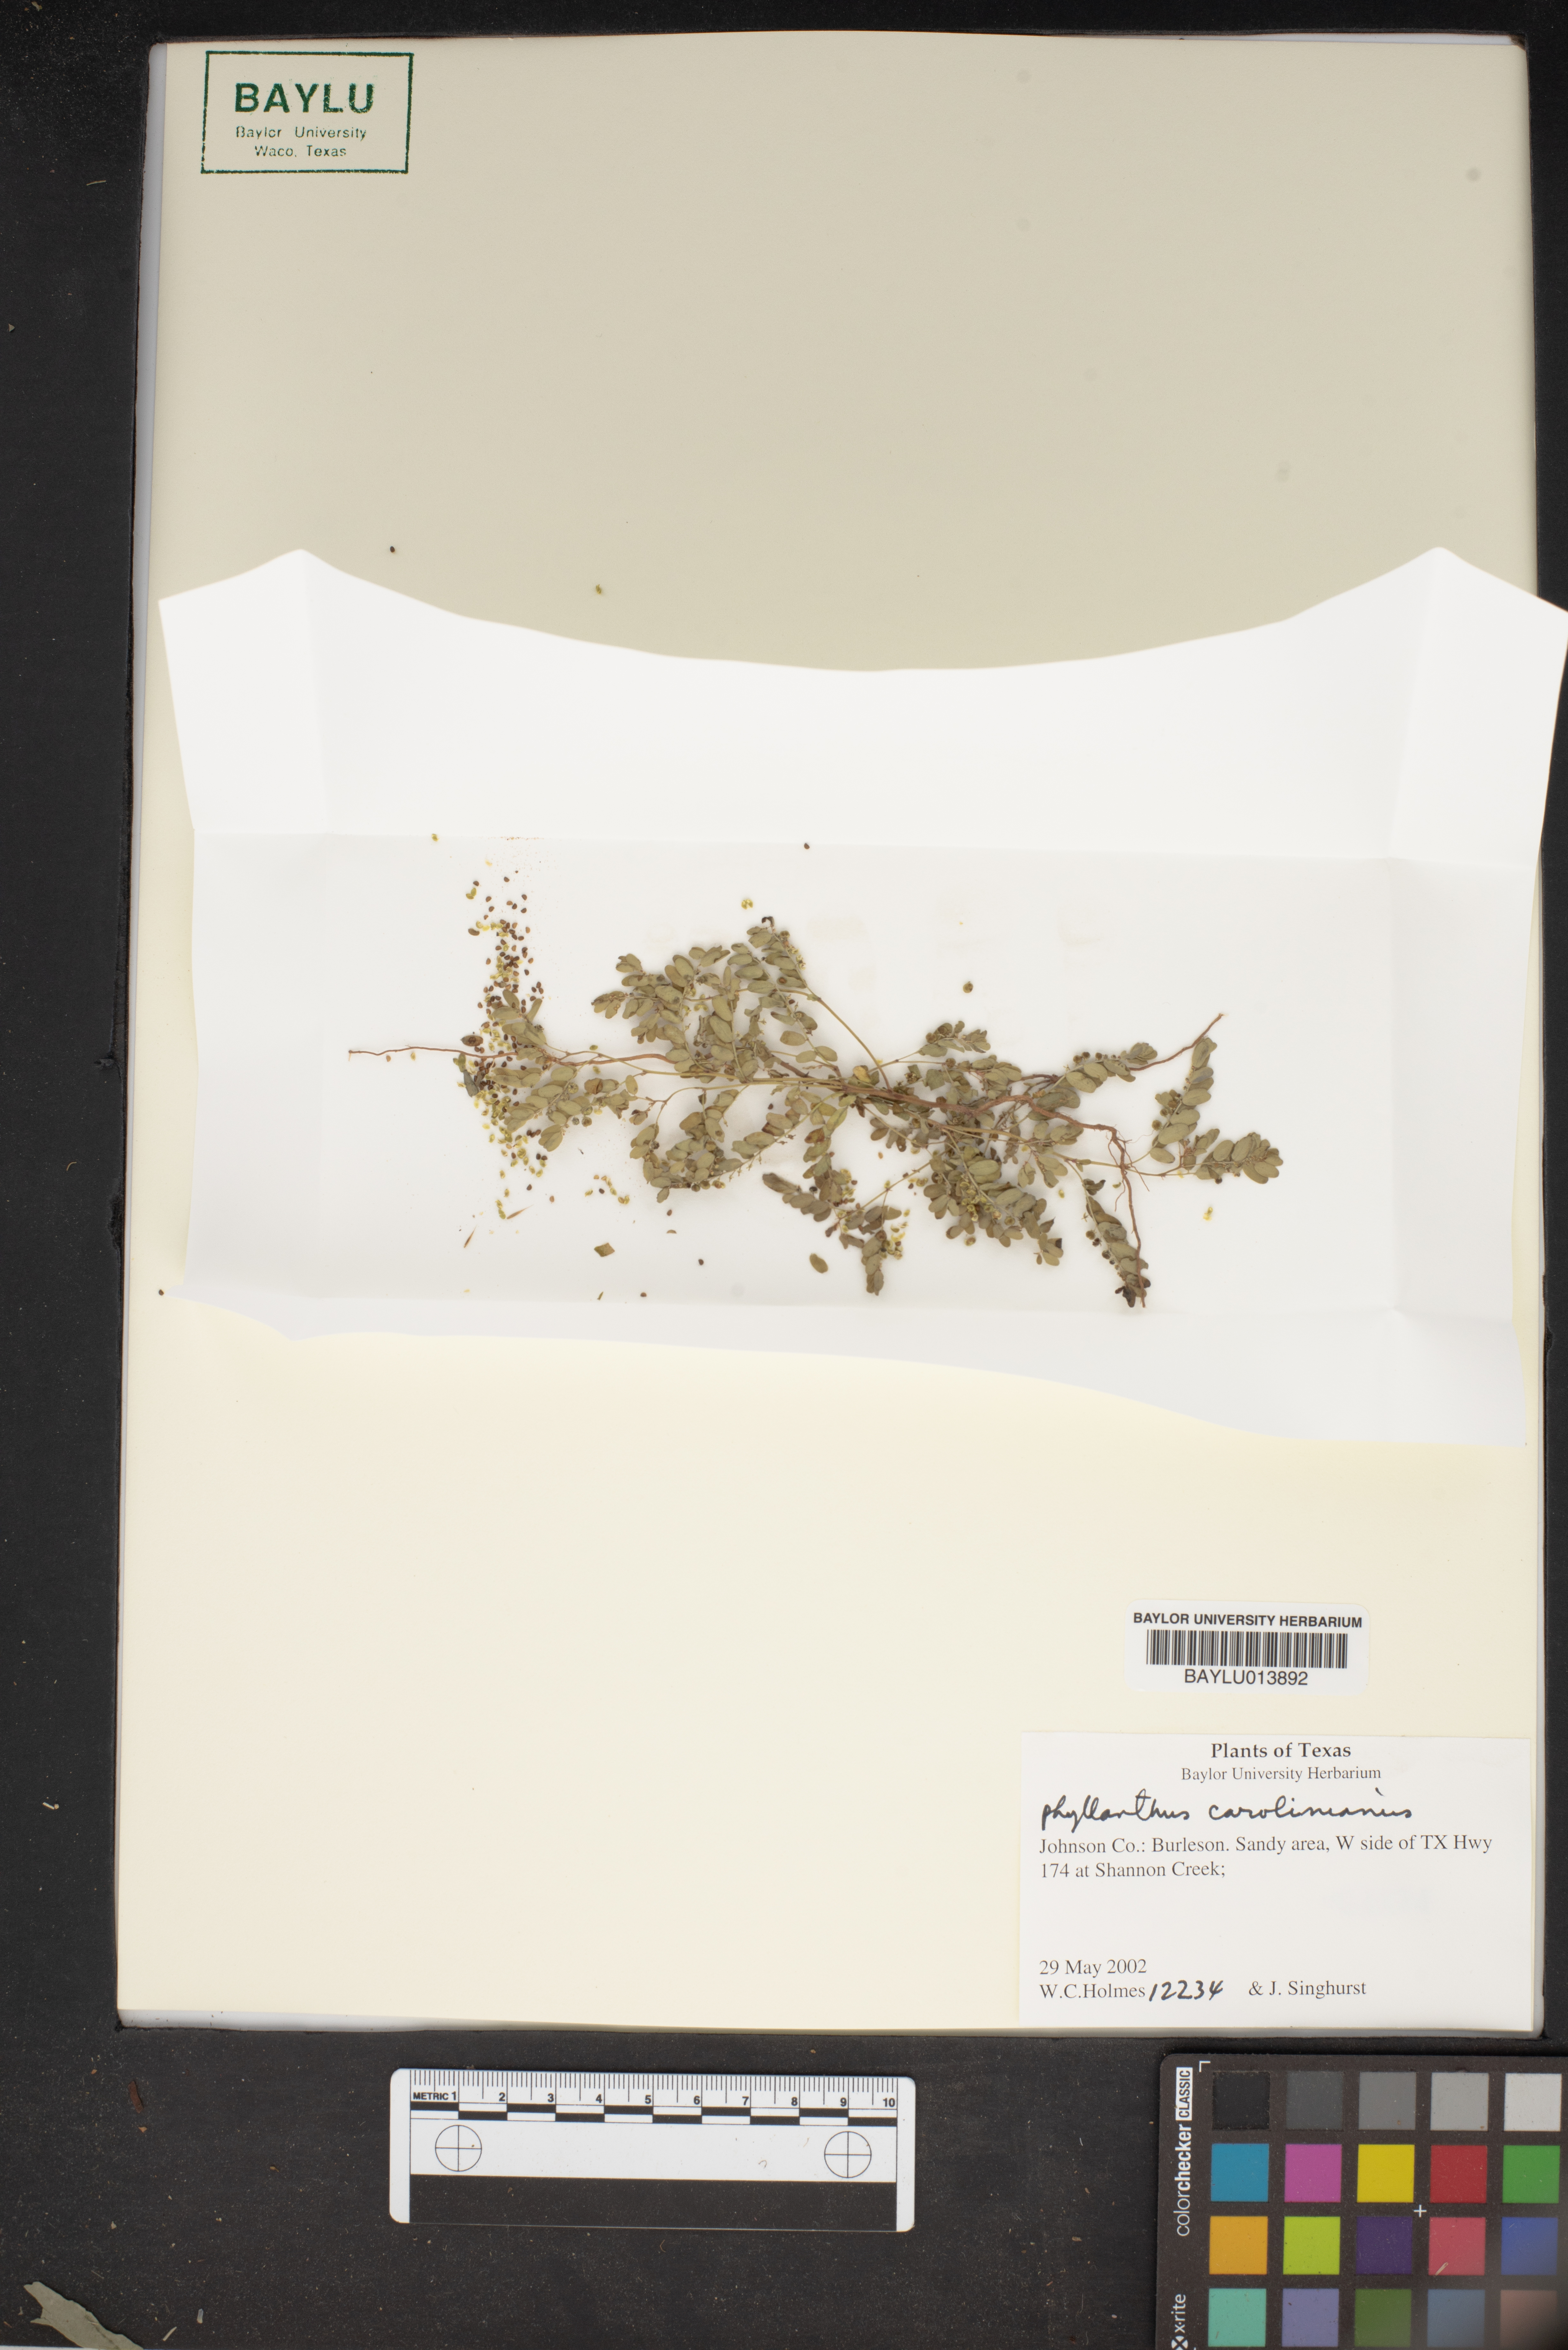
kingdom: Plantae
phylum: Tracheophyta
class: Magnoliopsida
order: Malpighiales
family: Phyllanthaceae
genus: Phyllanthus
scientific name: Phyllanthus niruri
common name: Niruri
